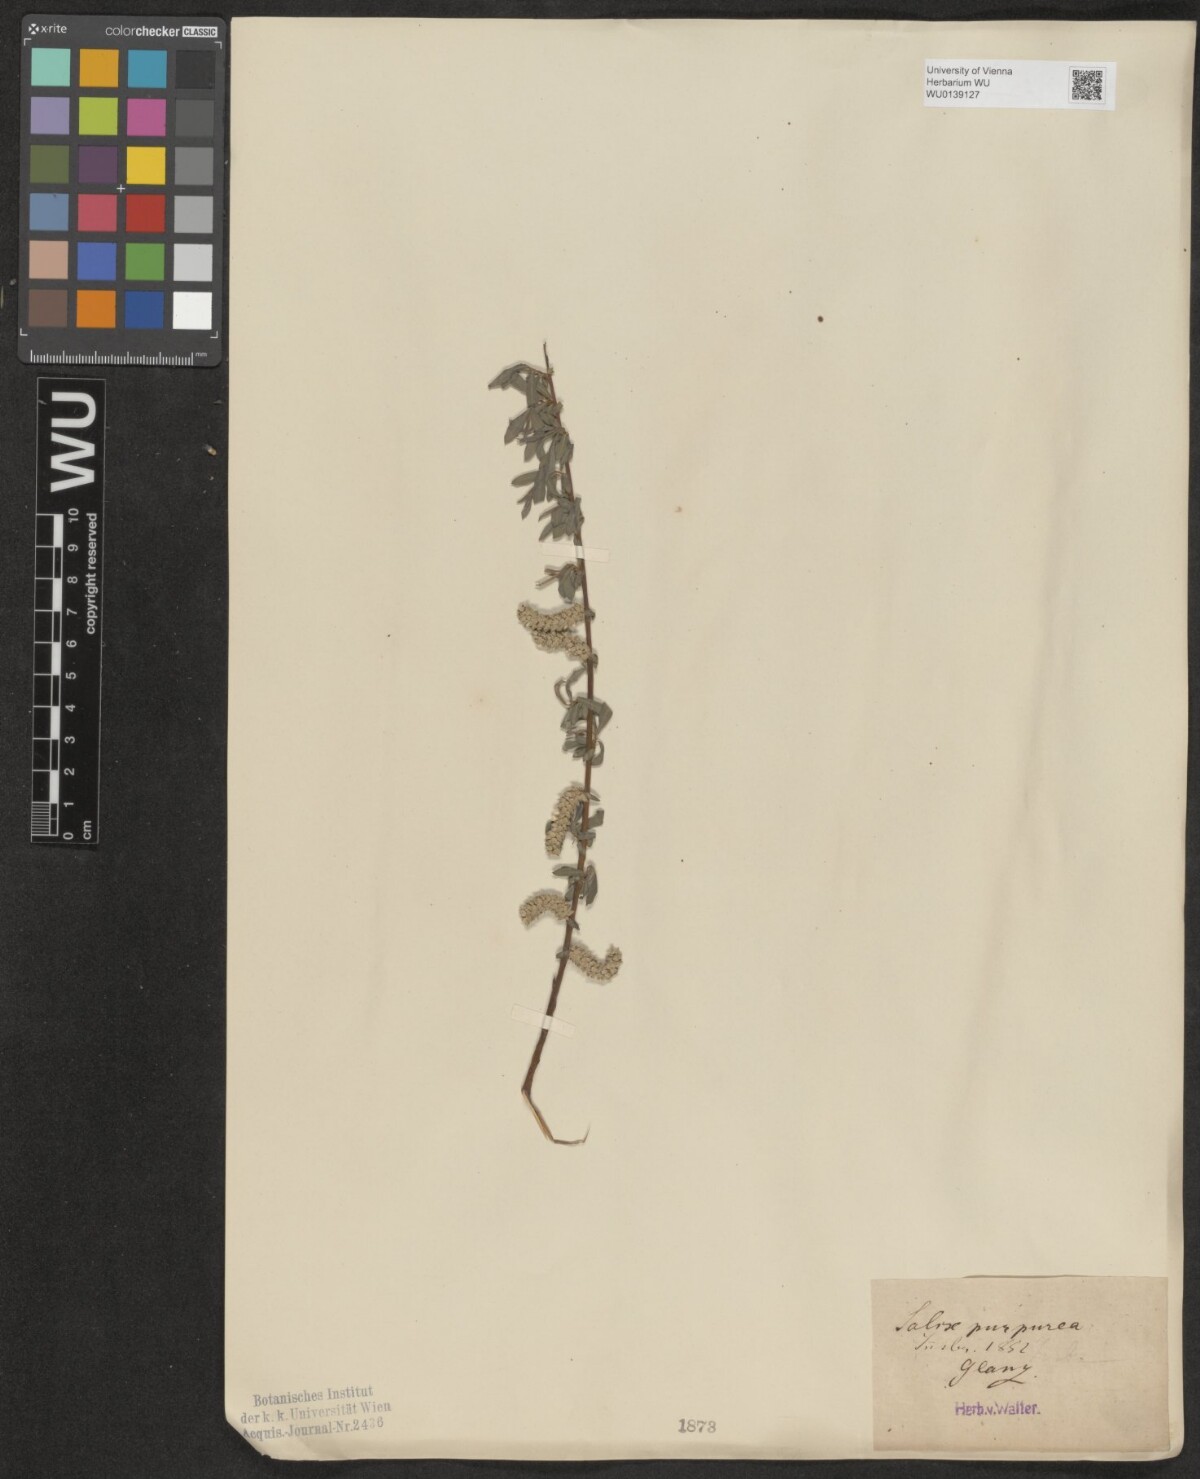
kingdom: Plantae
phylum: Tracheophyta
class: Magnoliopsida
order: Malpighiales
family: Salicaceae
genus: Salix
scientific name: Salix purpurea
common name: Purple willow
